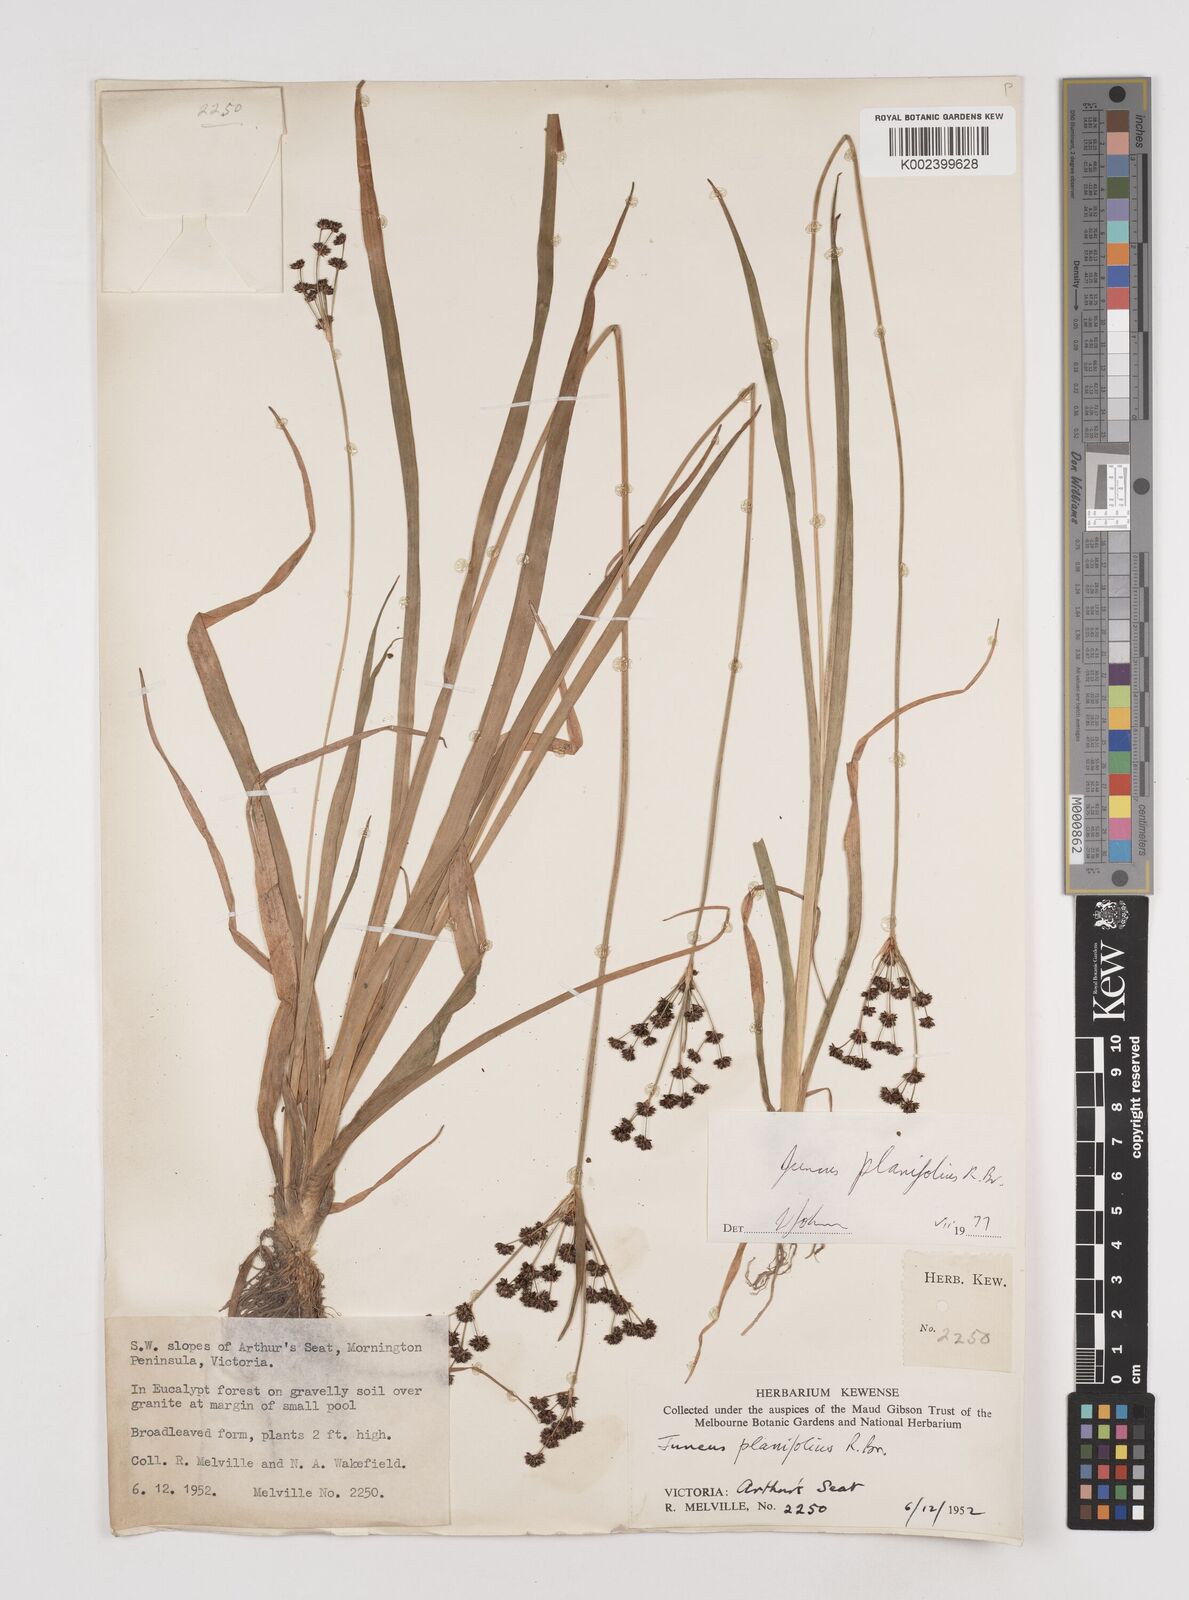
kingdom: Plantae
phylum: Tracheophyta
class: Liliopsida
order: Poales
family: Juncaceae
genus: Juncus
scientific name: Juncus planifolius
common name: Broadleaf rush
